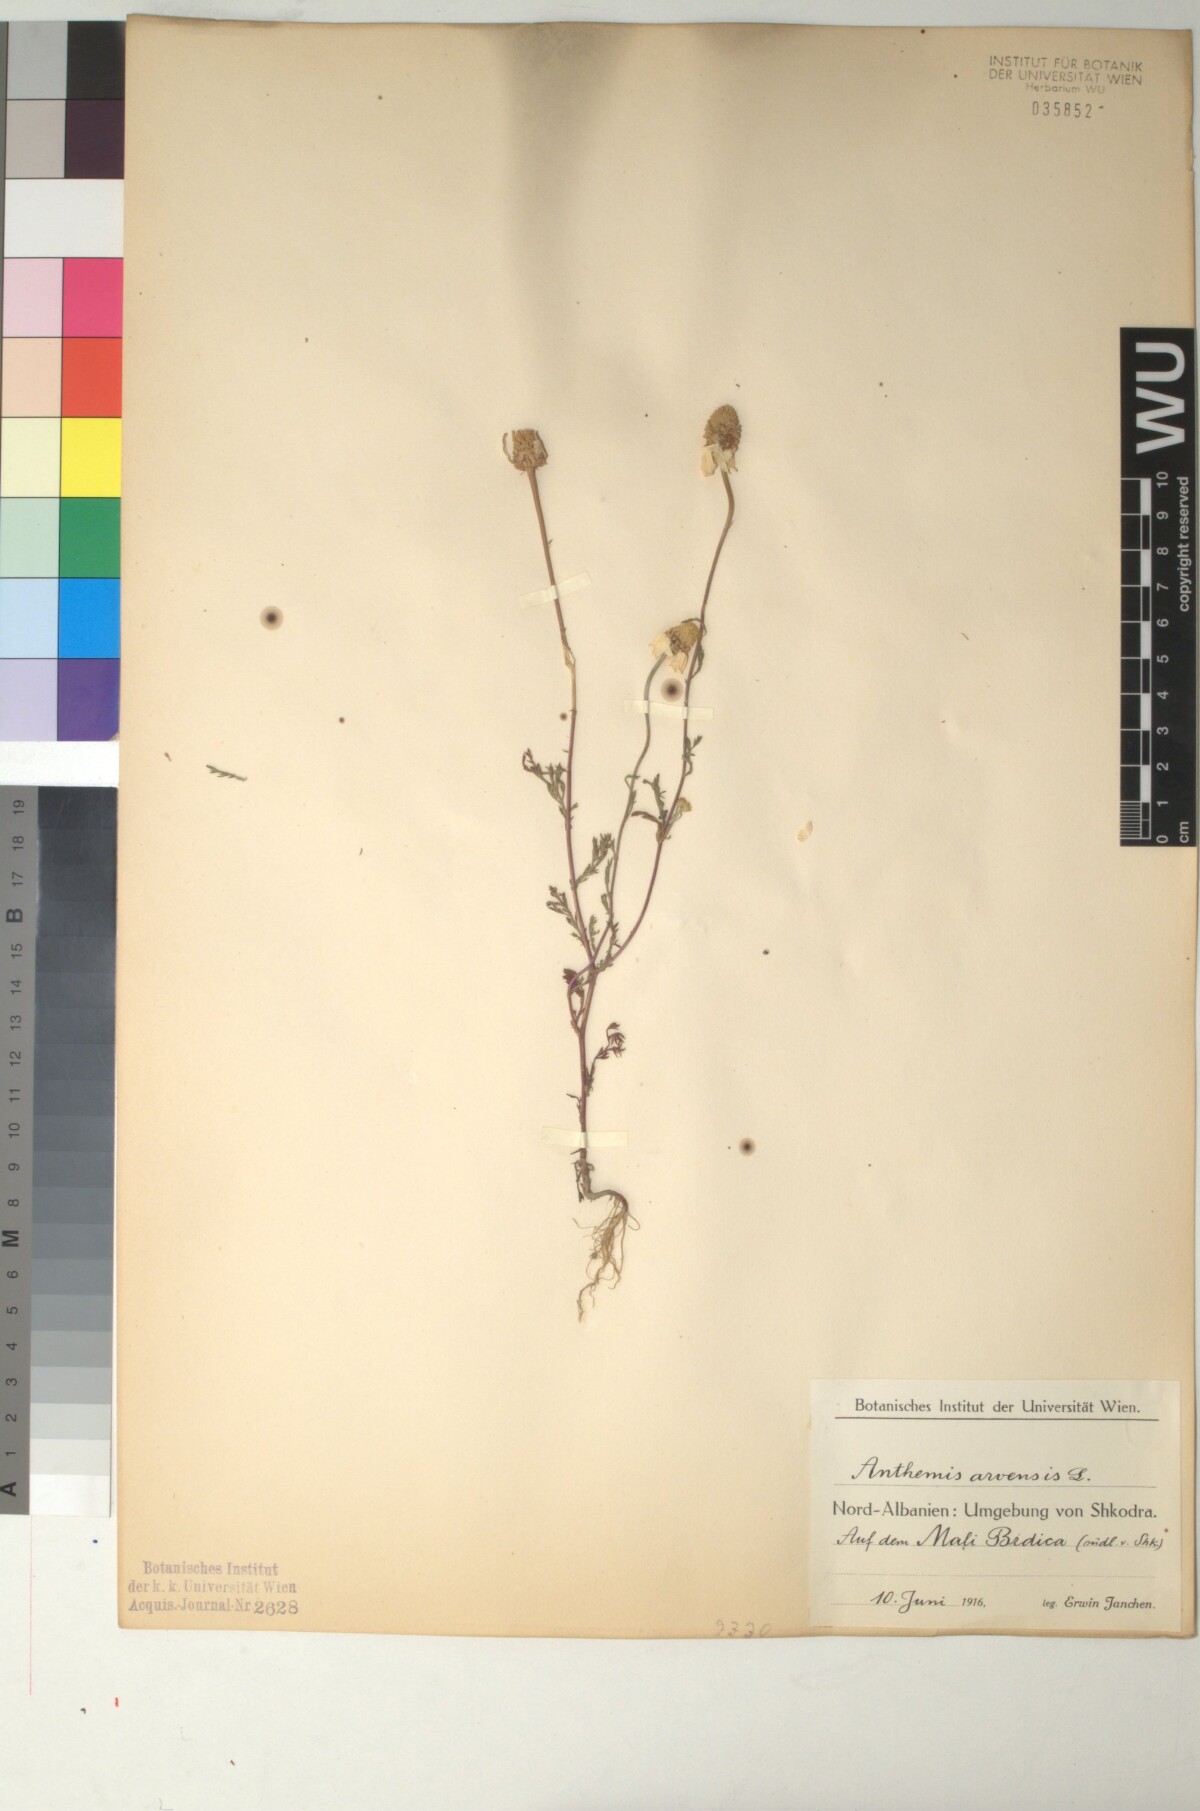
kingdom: Plantae
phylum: Tracheophyta
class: Magnoliopsida
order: Asterales
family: Asteraceae
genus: Anthemis
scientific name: Anthemis arvensis
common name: Corn chamomile
